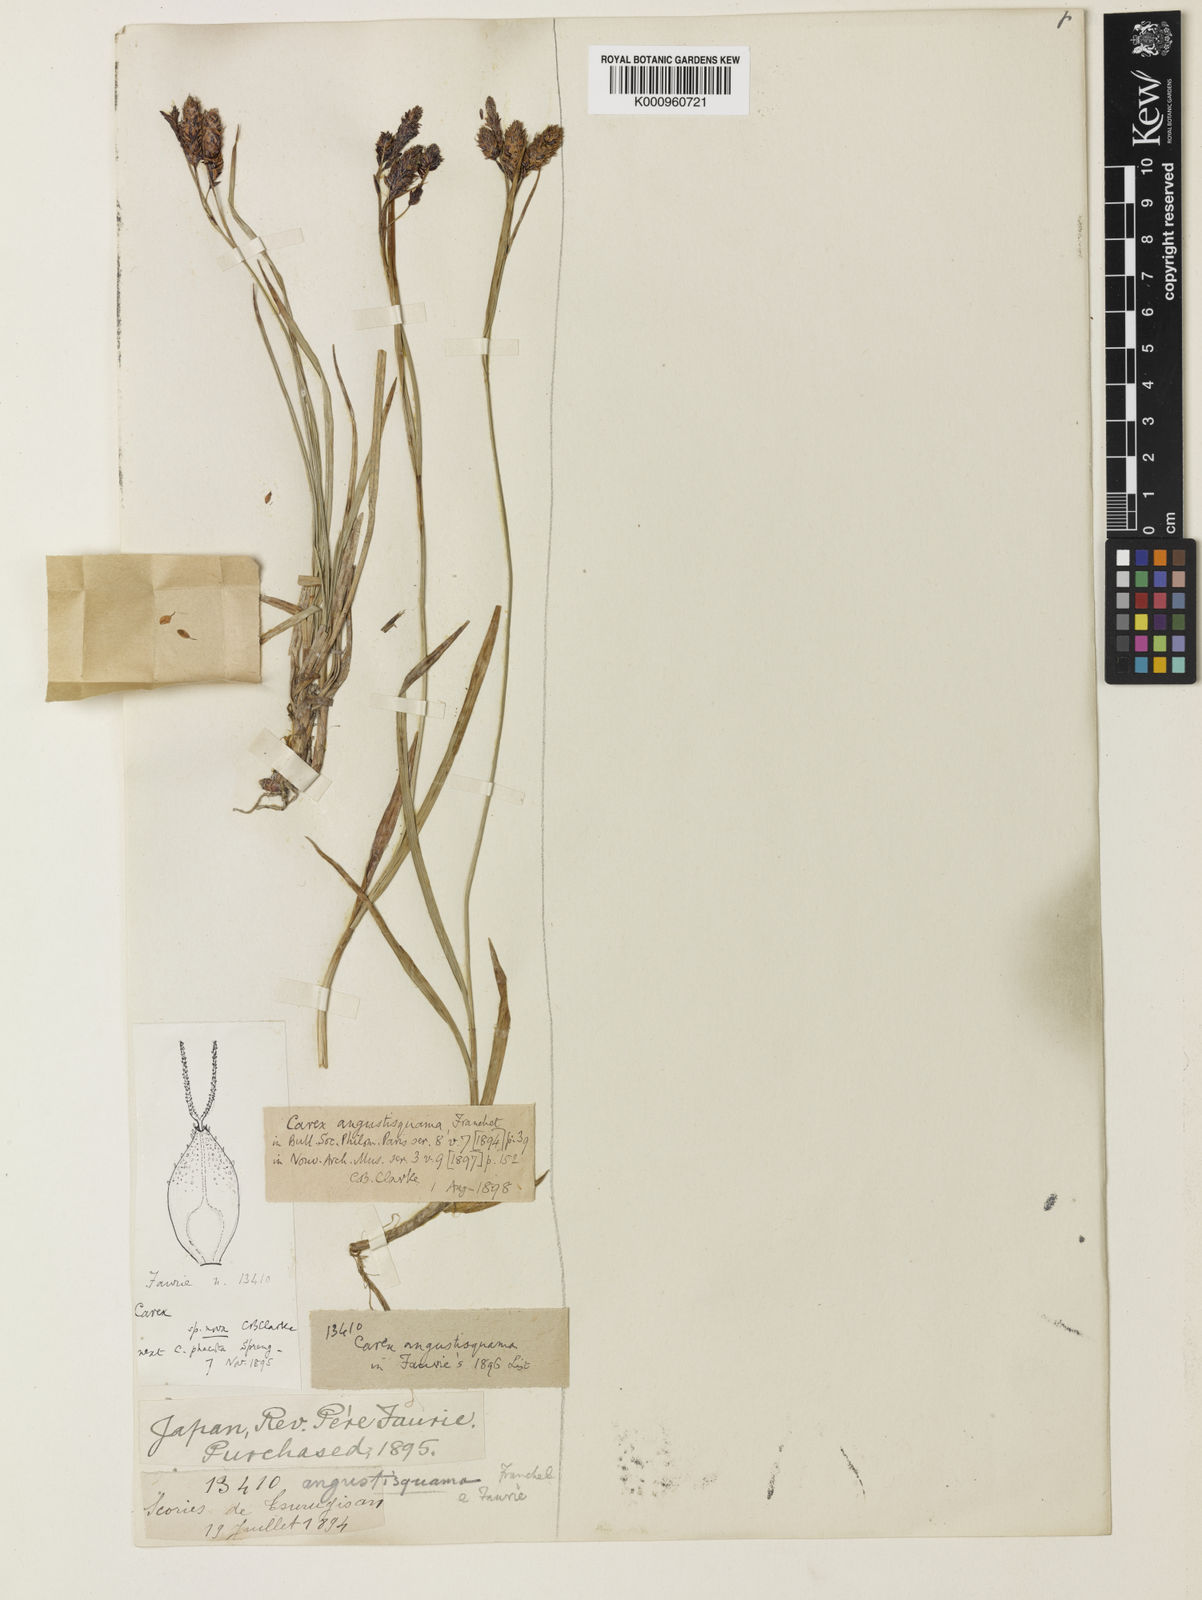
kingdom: Plantae
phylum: Tracheophyta
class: Liliopsida
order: Poales
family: Cyperaceae
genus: Carex
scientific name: Carex angustisquama
